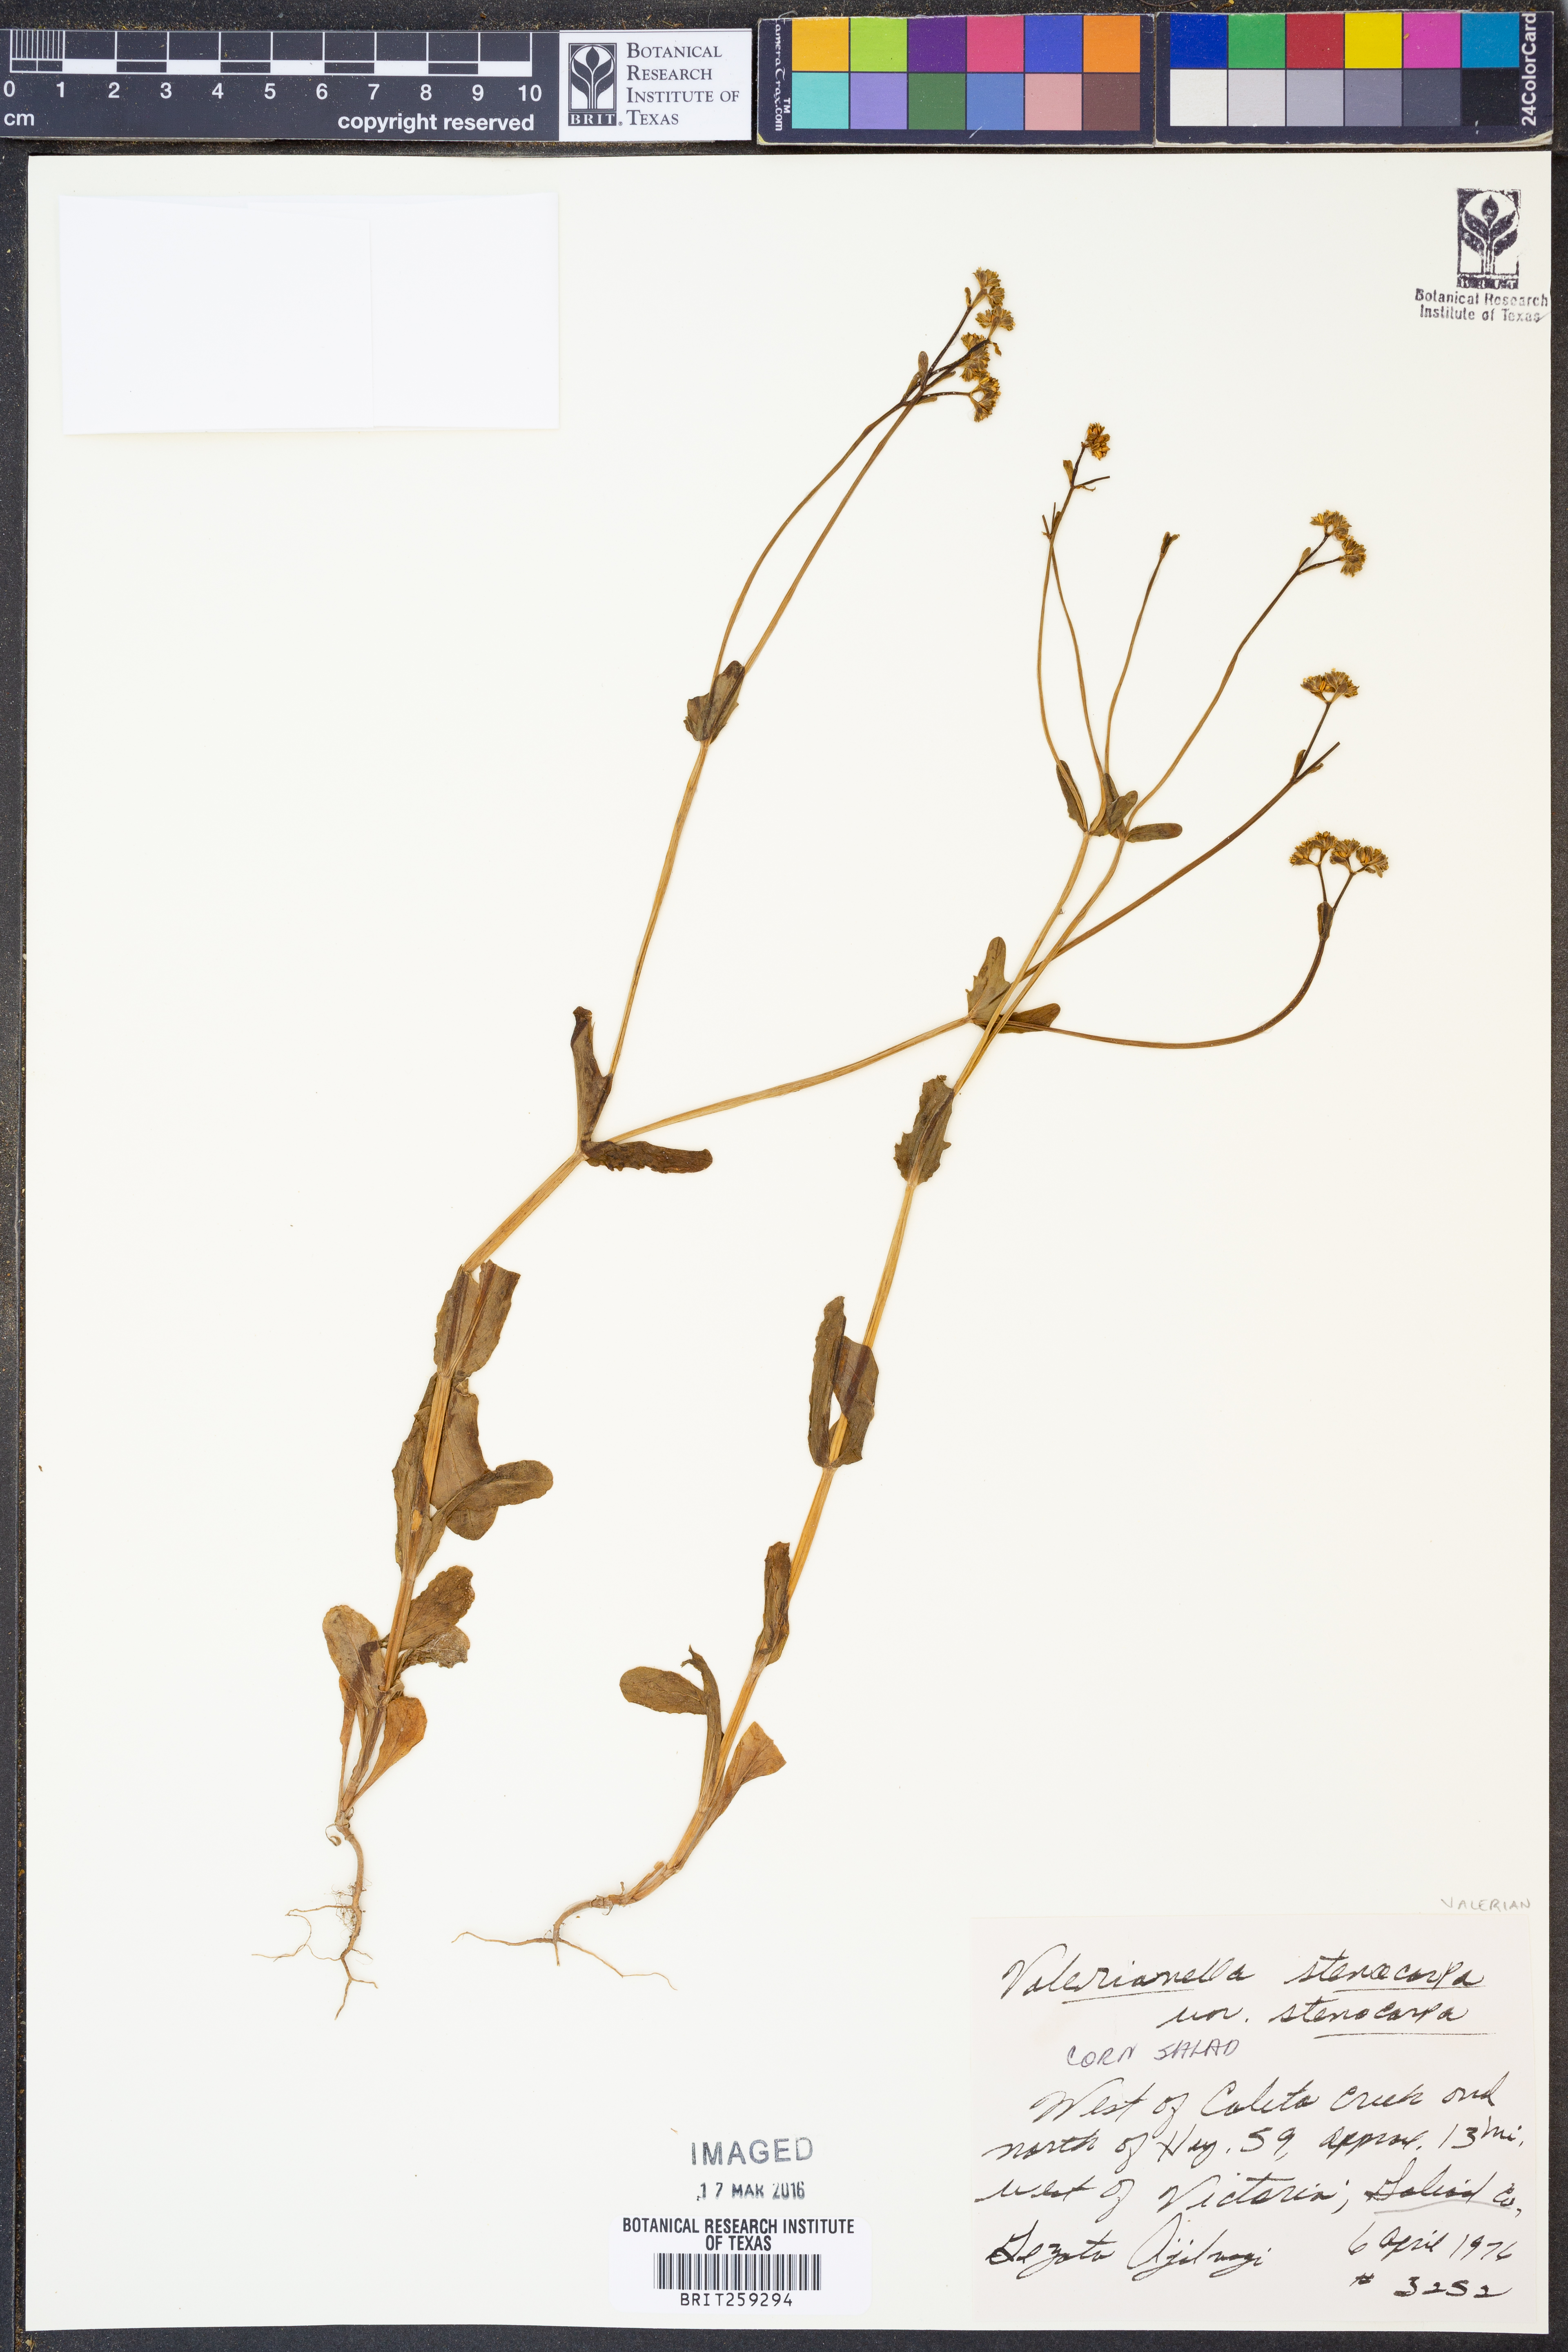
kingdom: Plantae
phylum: Tracheophyta
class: Magnoliopsida
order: Dipsacales
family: Caprifoliaceae
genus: Valerianella
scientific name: Valerianella stenocarpa
